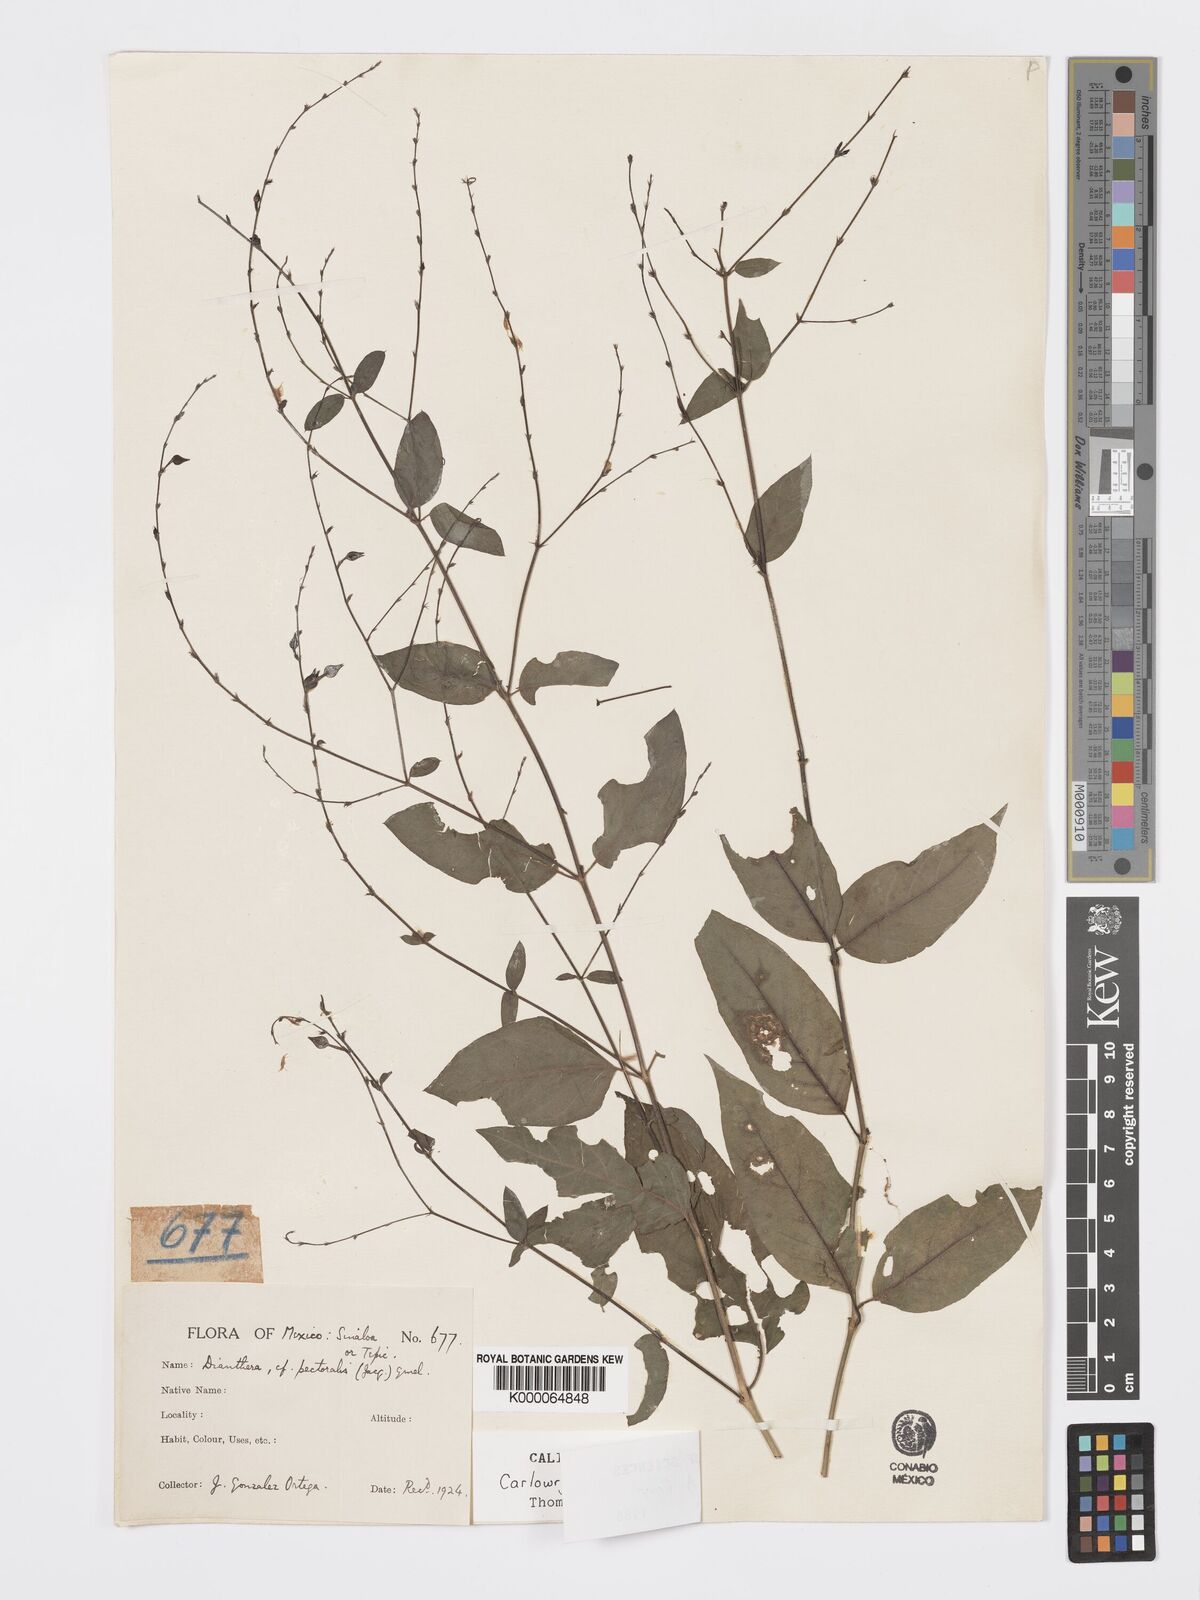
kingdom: Plantae
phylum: Tracheophyta
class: Magnoliopsida
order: Lamiales
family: Acanthaceae
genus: Carlowrightia
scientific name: Carlowrightia arizonica
